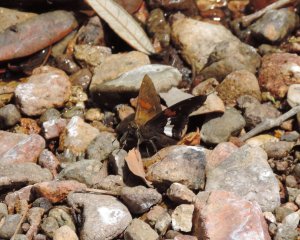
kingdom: Animalia
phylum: Arthropoda
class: Insecta
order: Lepidoptera
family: Hesperiidae
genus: Epargyreus
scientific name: Epargyreus clarus
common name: Silver-spotted Skipper
